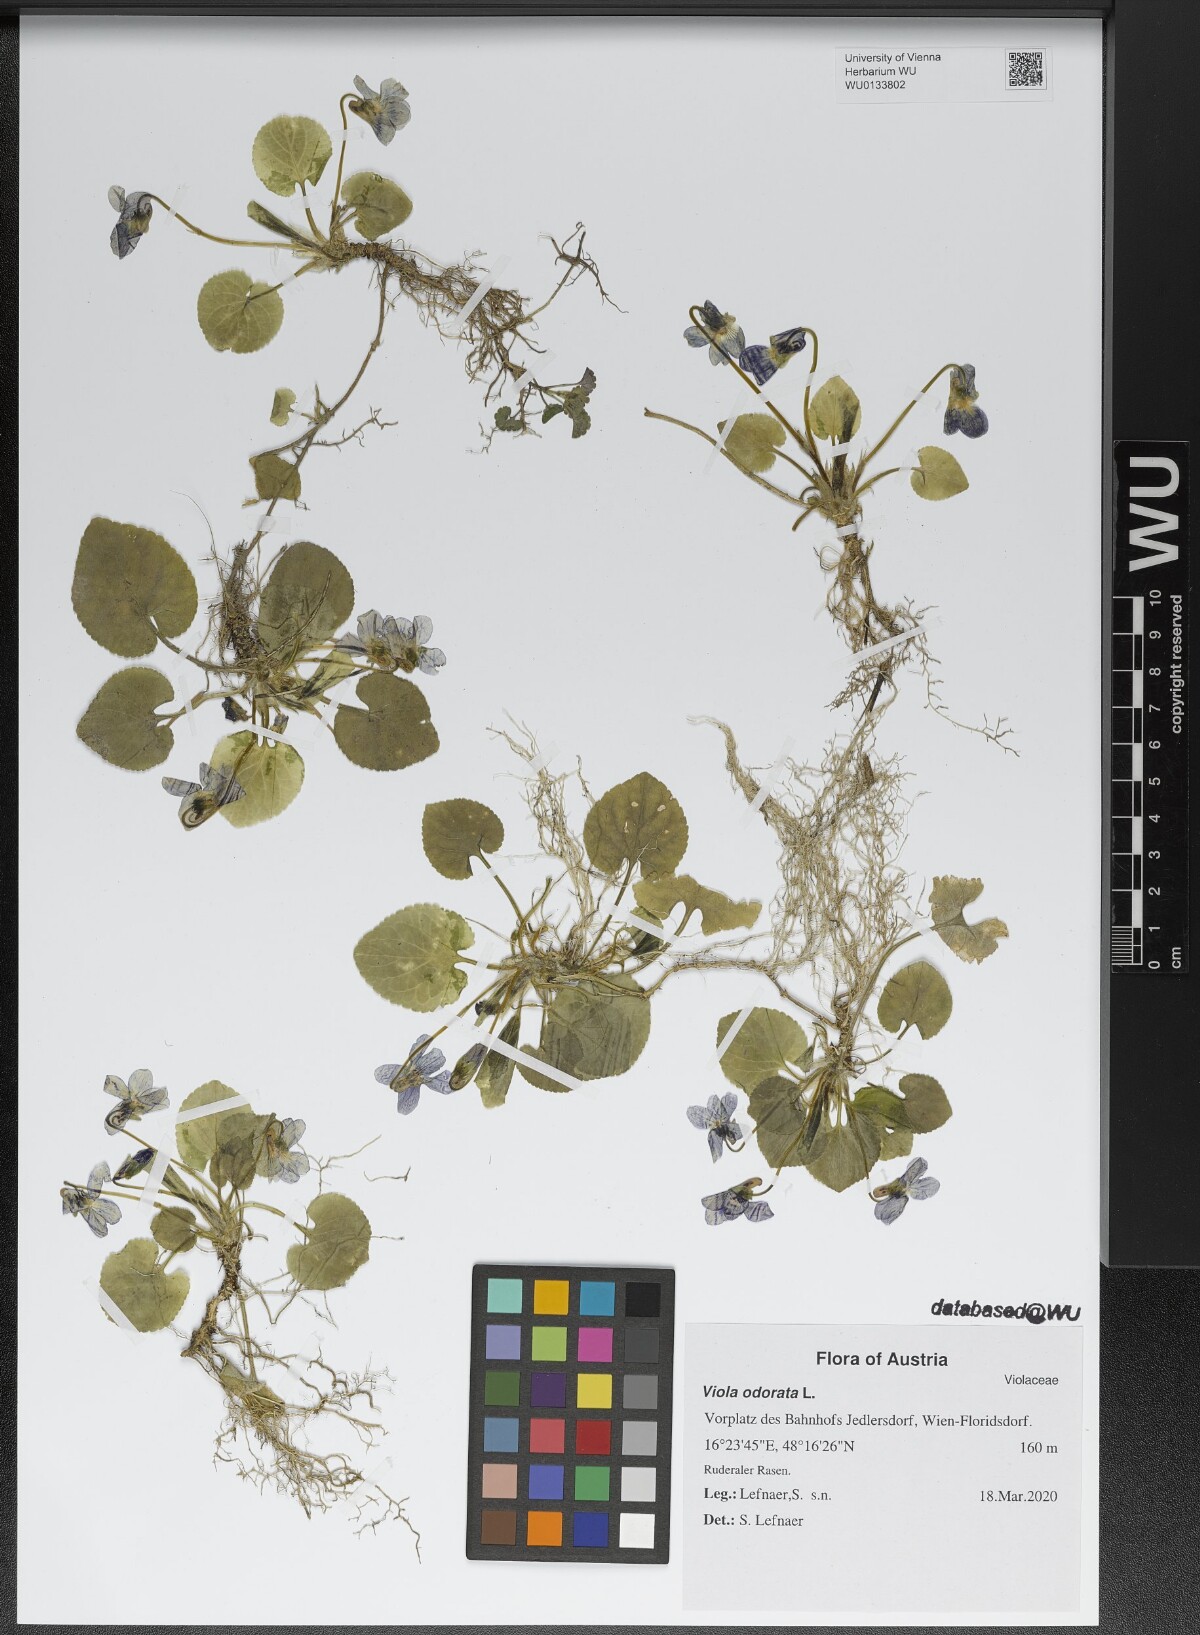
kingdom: Plantae
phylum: Tracheophyta
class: Magnoliopsida
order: Malpighiales
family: Violaceae
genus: Viola
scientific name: Viola odorata
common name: Sweet violet
